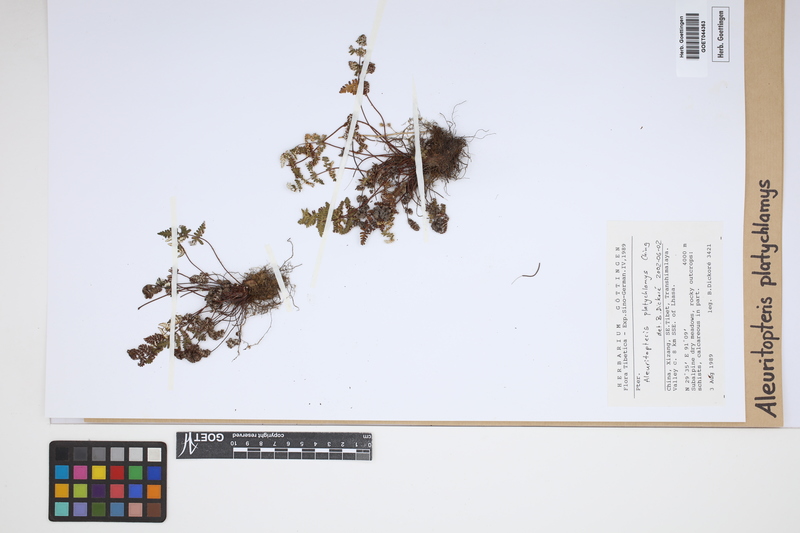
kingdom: Plantae
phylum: Tracheophyta
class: Polypodiopsida
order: Polypodiales
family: Pteridaceae
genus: Aleuritopteris
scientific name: Aleuritopteris grisea
